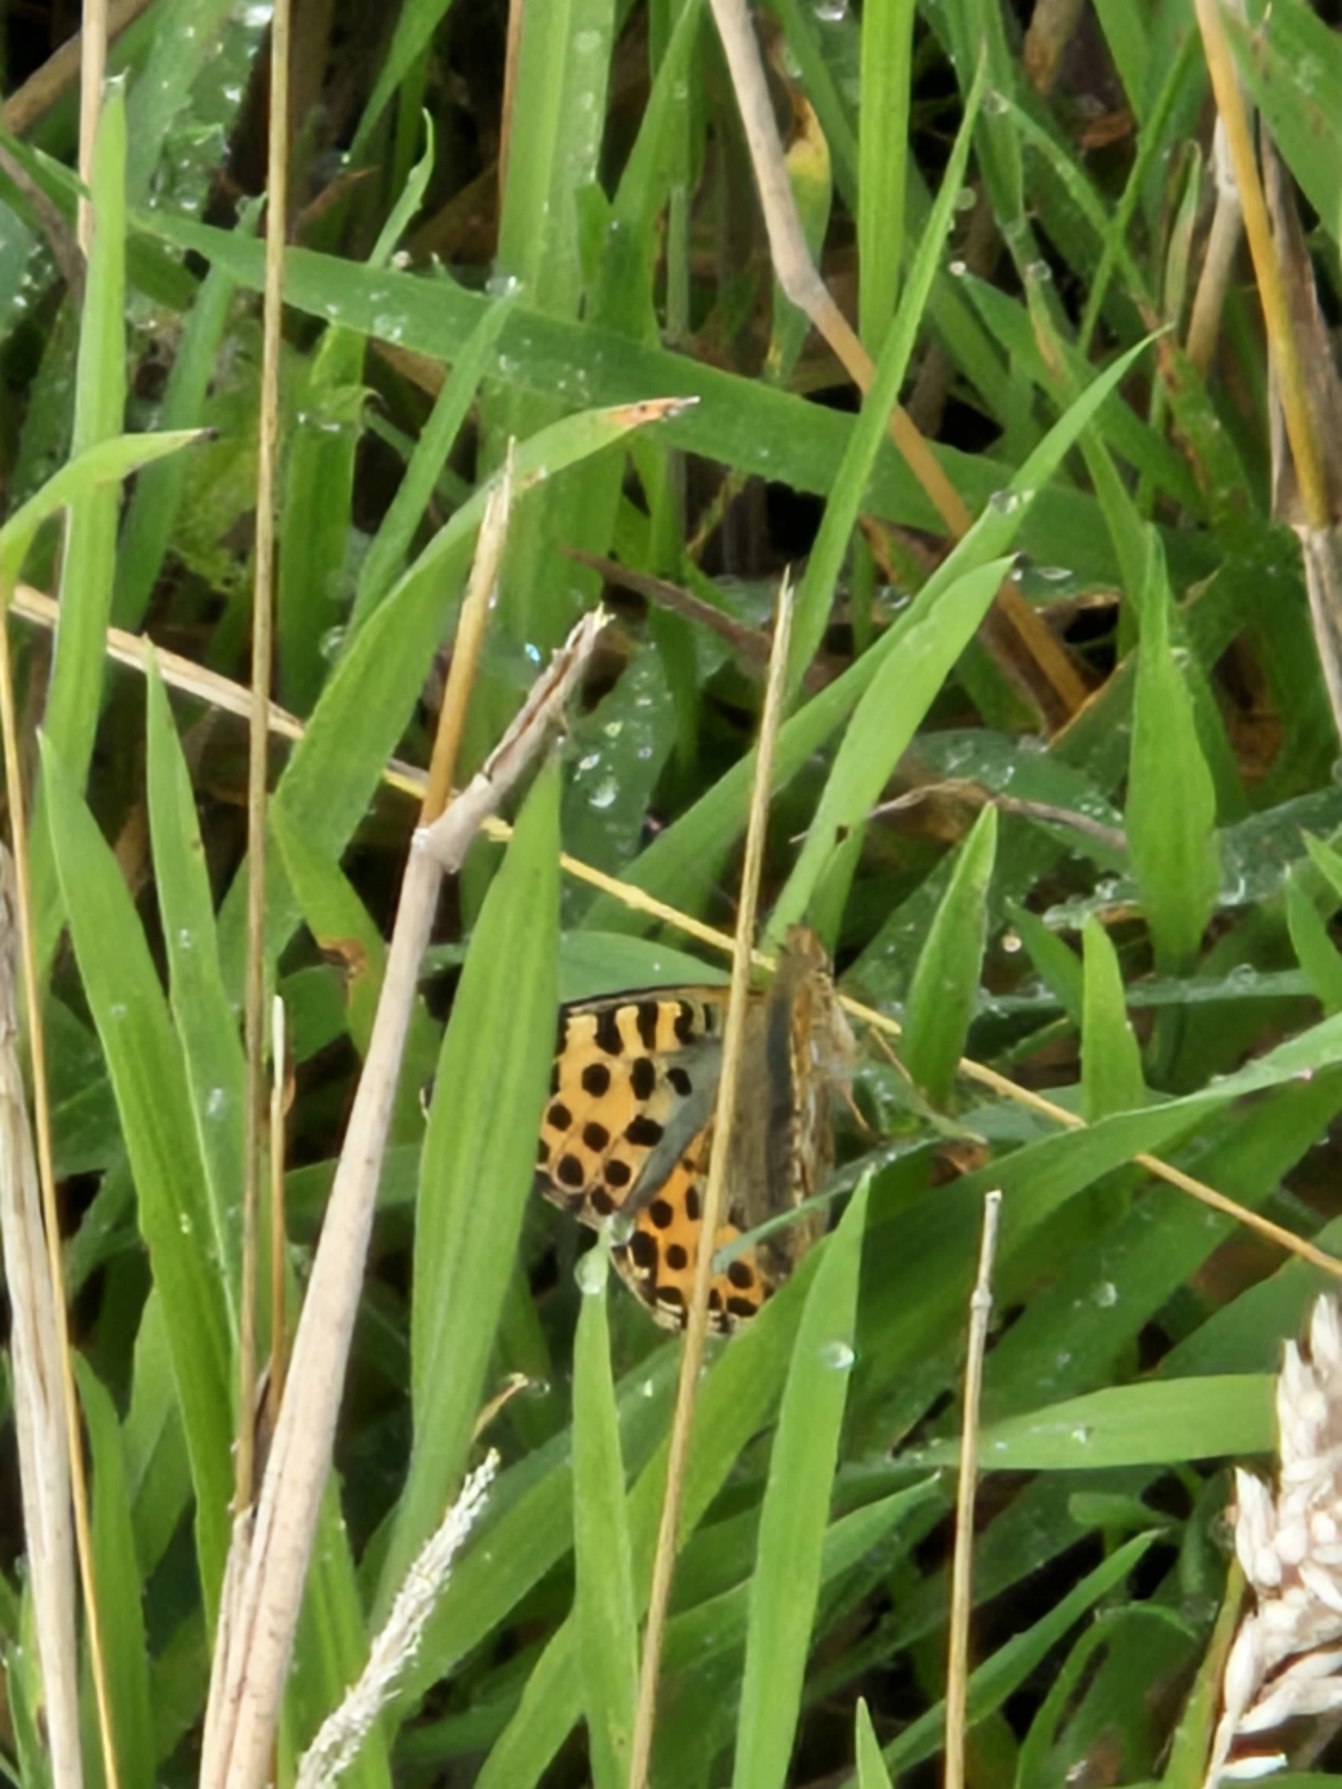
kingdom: Animalia
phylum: Arthropoda
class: Insecta
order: Lepidoptera
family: Nymphalidae
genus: Issoria
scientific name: Issoria lathonia
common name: Storplettet perlemorsommerfugl
